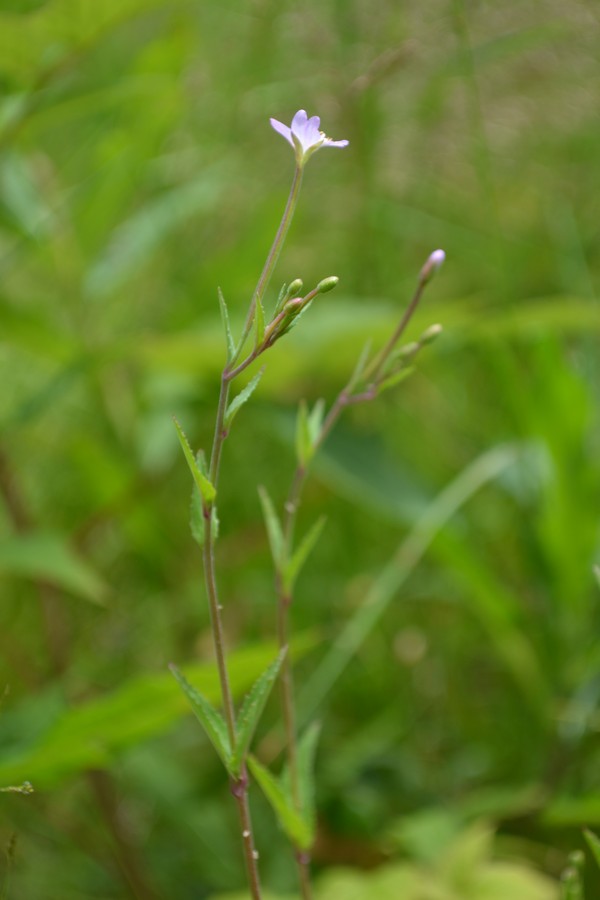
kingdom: Plantae
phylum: Tracheophyta
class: Magnoliopsida
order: Myrtales
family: Onagraceae
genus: Epilobium
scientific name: Epilobium roseum
